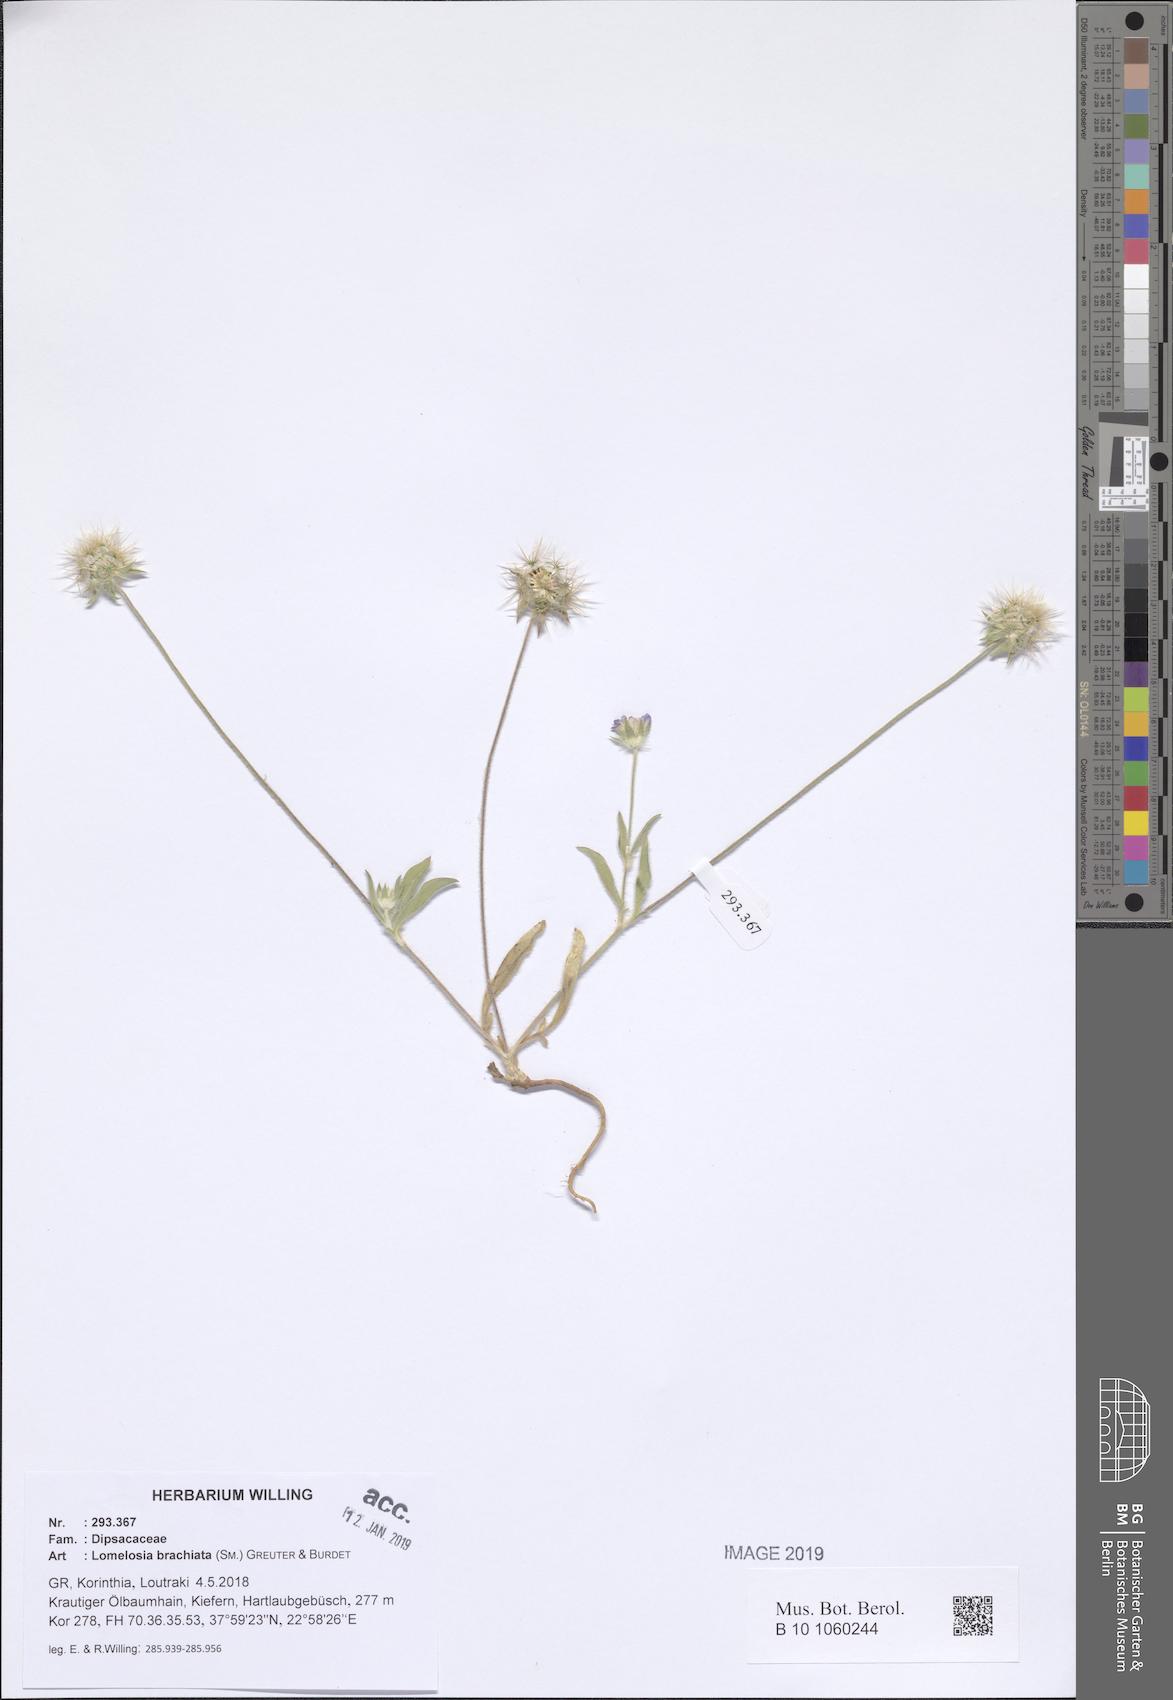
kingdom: Plantae
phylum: Tracheophyta
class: Magnoliopsida
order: Dipsacales
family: Caprifoliaceae
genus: Lomelosia
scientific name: Lomelosia brachiata
